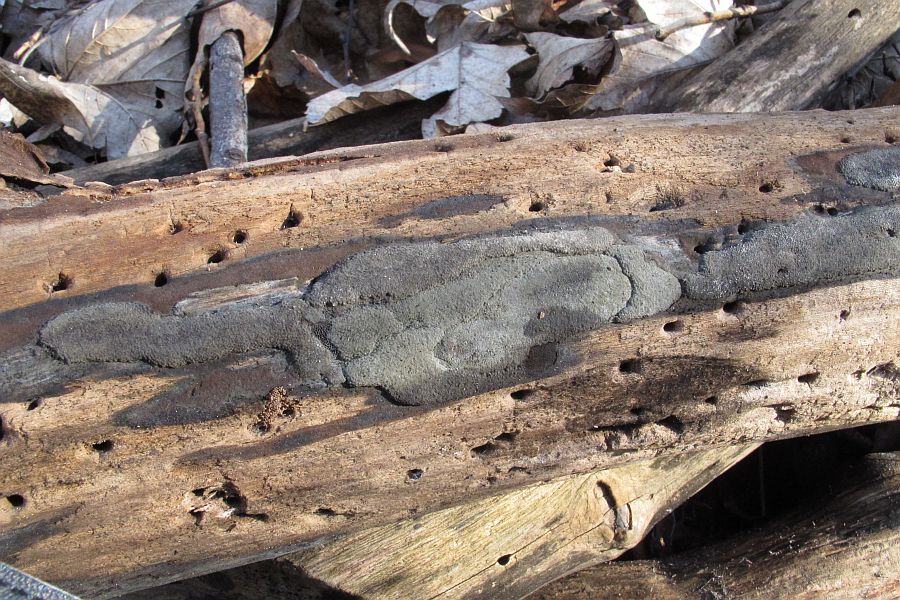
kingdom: Fungi
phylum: Ascomycota
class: Sordariomycetes
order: Xylariales
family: Hypoxylaceae
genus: Hypoxylon
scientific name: Hypoxylon macrocarpum
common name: skorpe-kulbær
